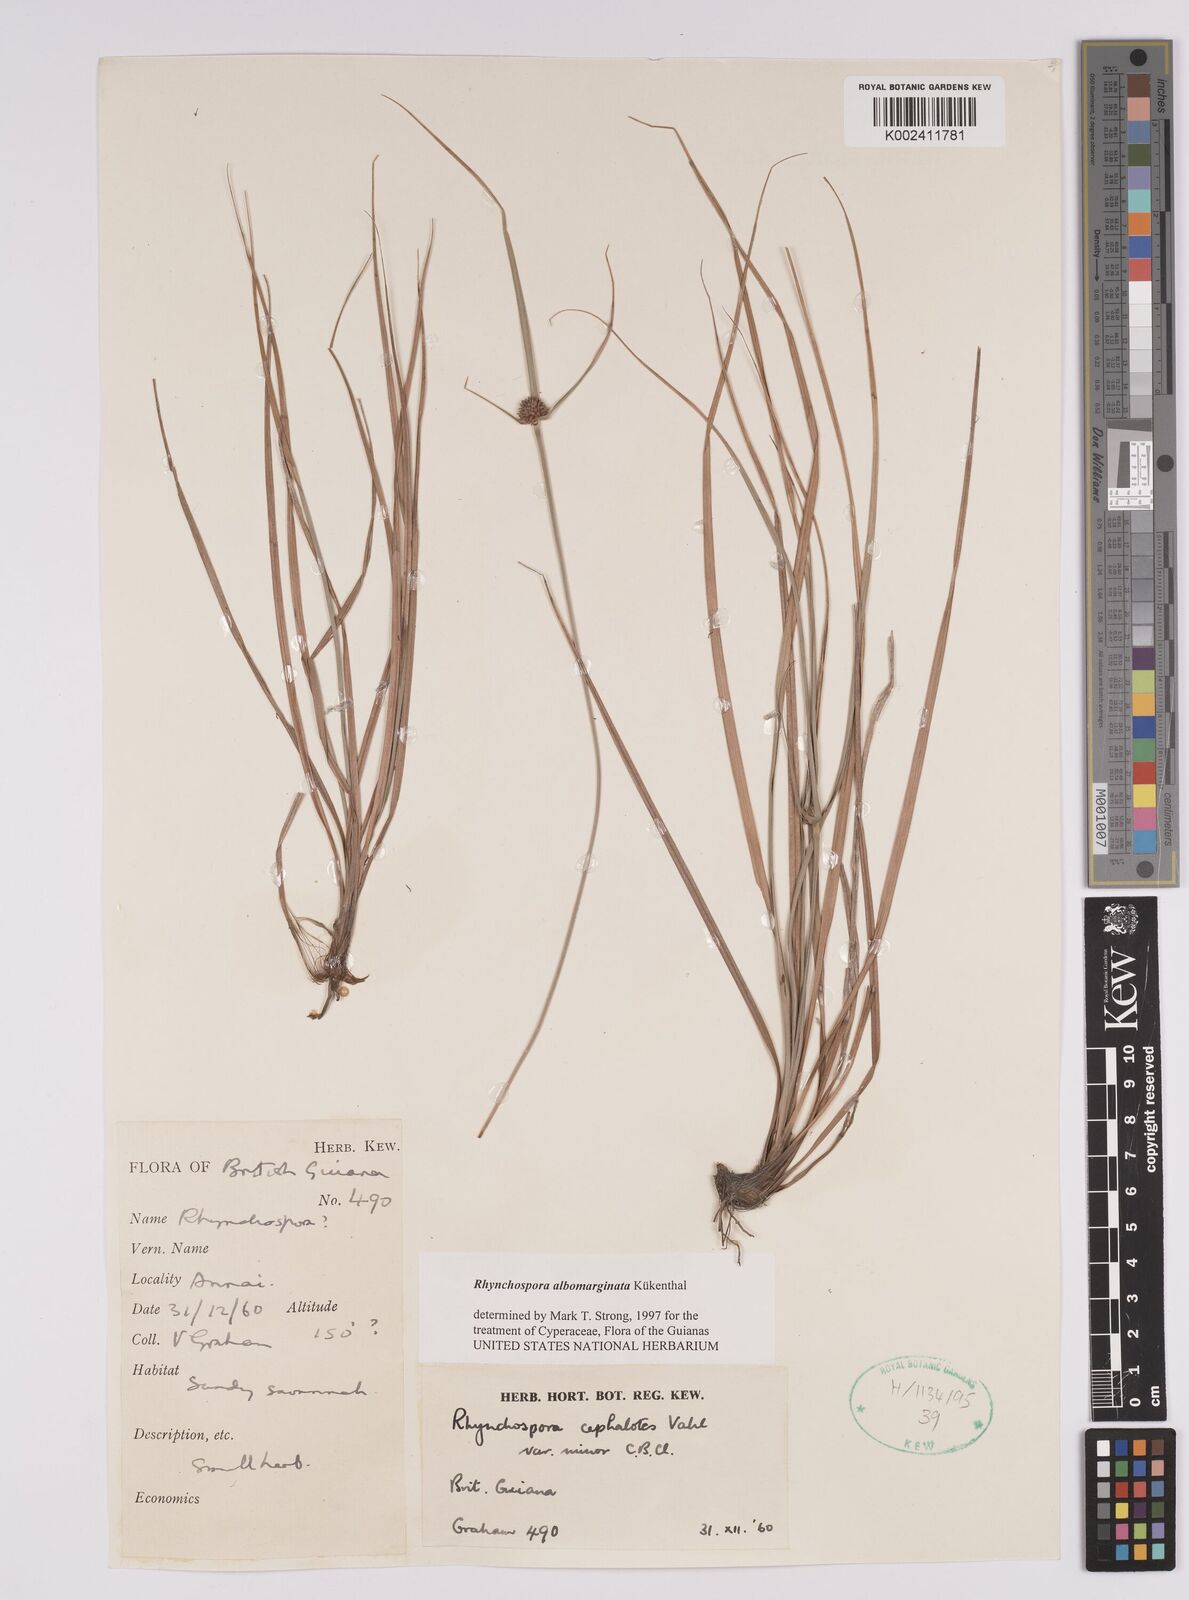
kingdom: Plantae
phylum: Tracheophyta
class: Liliopsida
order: Poales
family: Cyperaceae
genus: Rhynchospora
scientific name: Rhynchospora cephalotes
